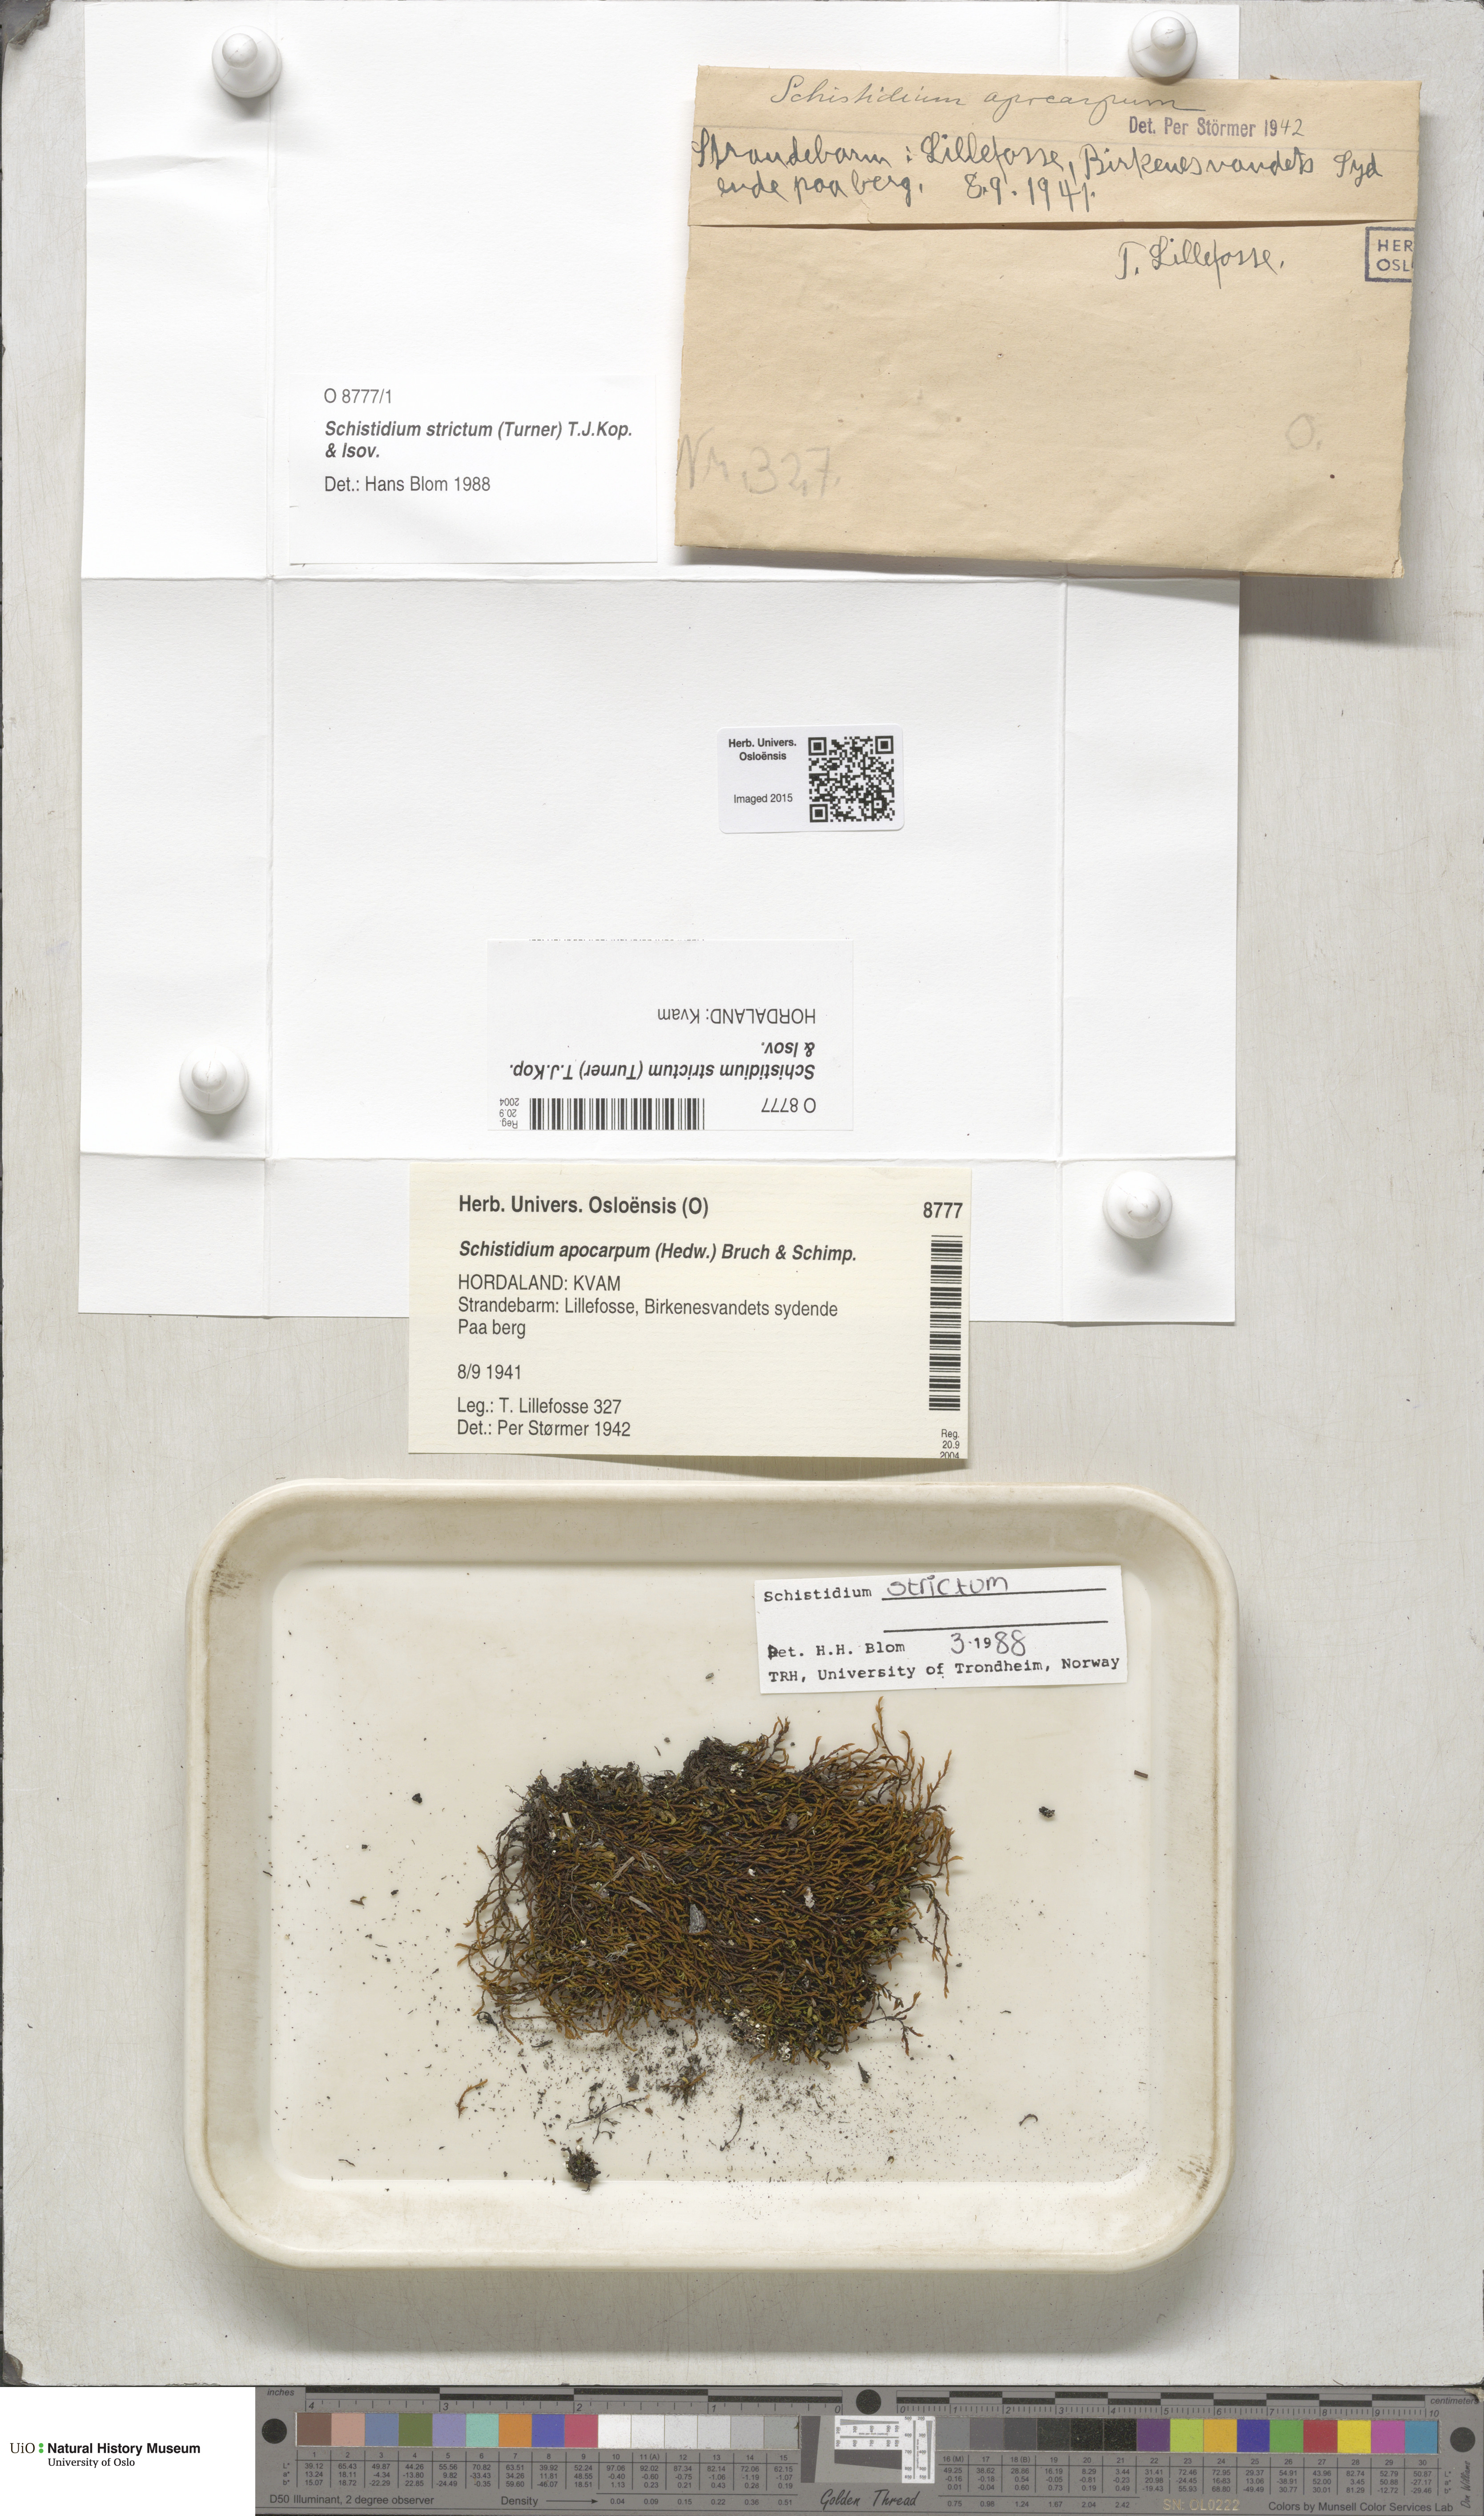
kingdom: Plantae
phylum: Bryophyta
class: Bryopsida
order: Grimmiales
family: Grimmiaceae
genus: Schistidium
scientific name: Schistidium strictum
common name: Upright brown grimmia
